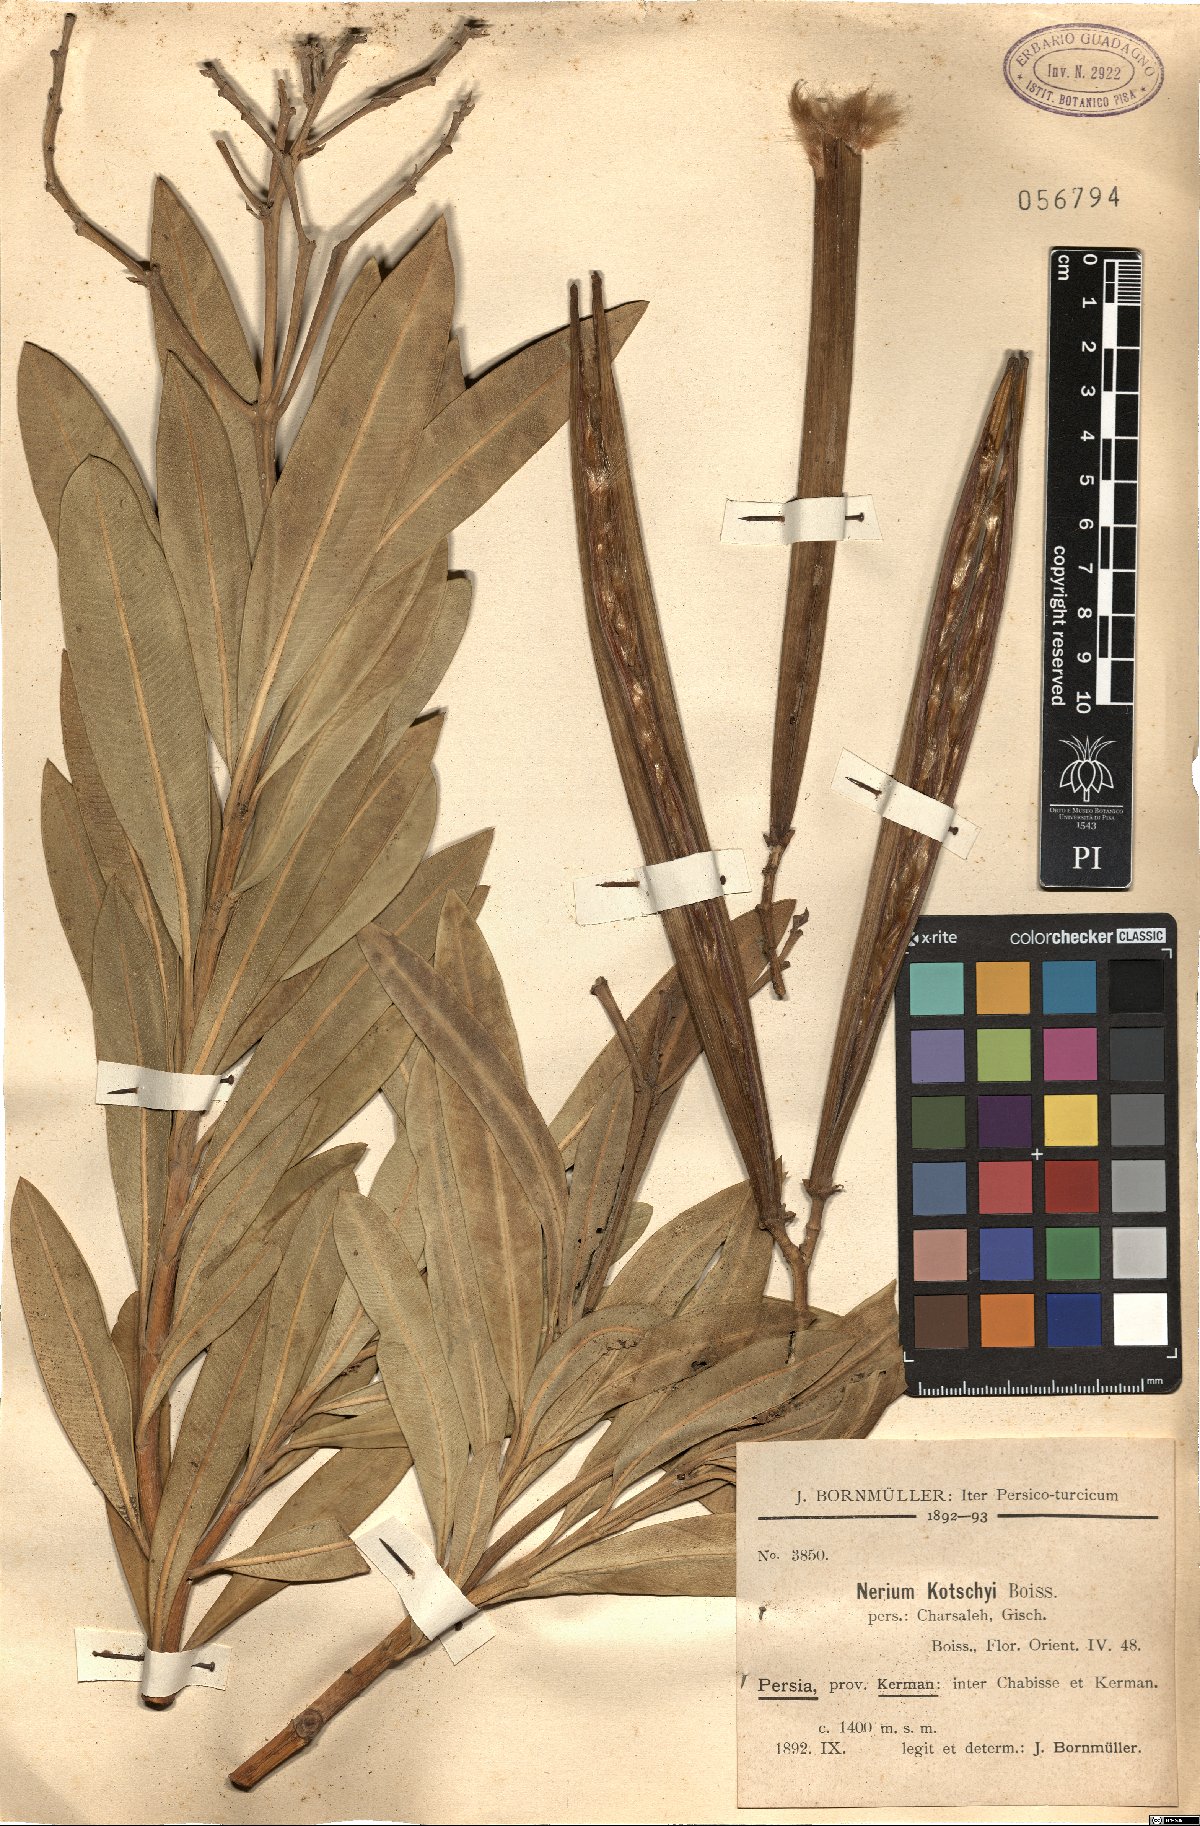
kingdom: Plantae
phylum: Tracheophyta
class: Magnoliopsida
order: Gentianales
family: Apocynaceae
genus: Nerium
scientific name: Nerium indicum
